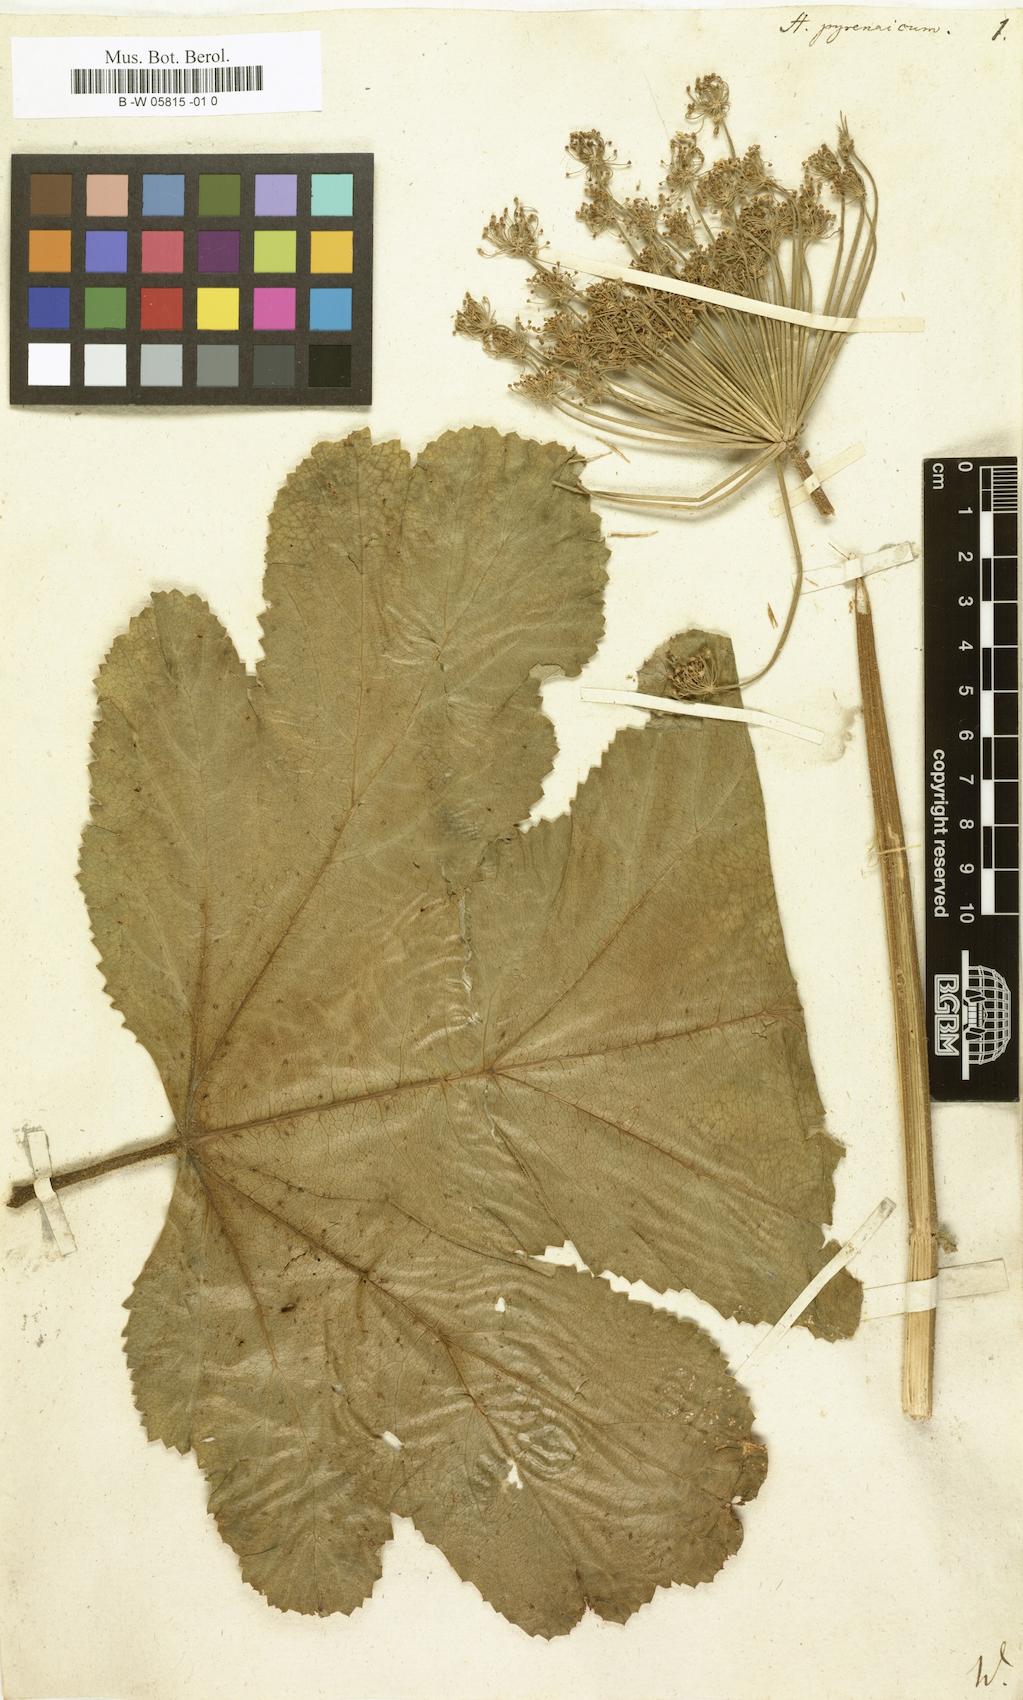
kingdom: Plantae
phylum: Tracheophyta
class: Magnoliopsida
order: Apiales
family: Apiaceae
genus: Heracleum
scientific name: Heracleum pyrenaicum
